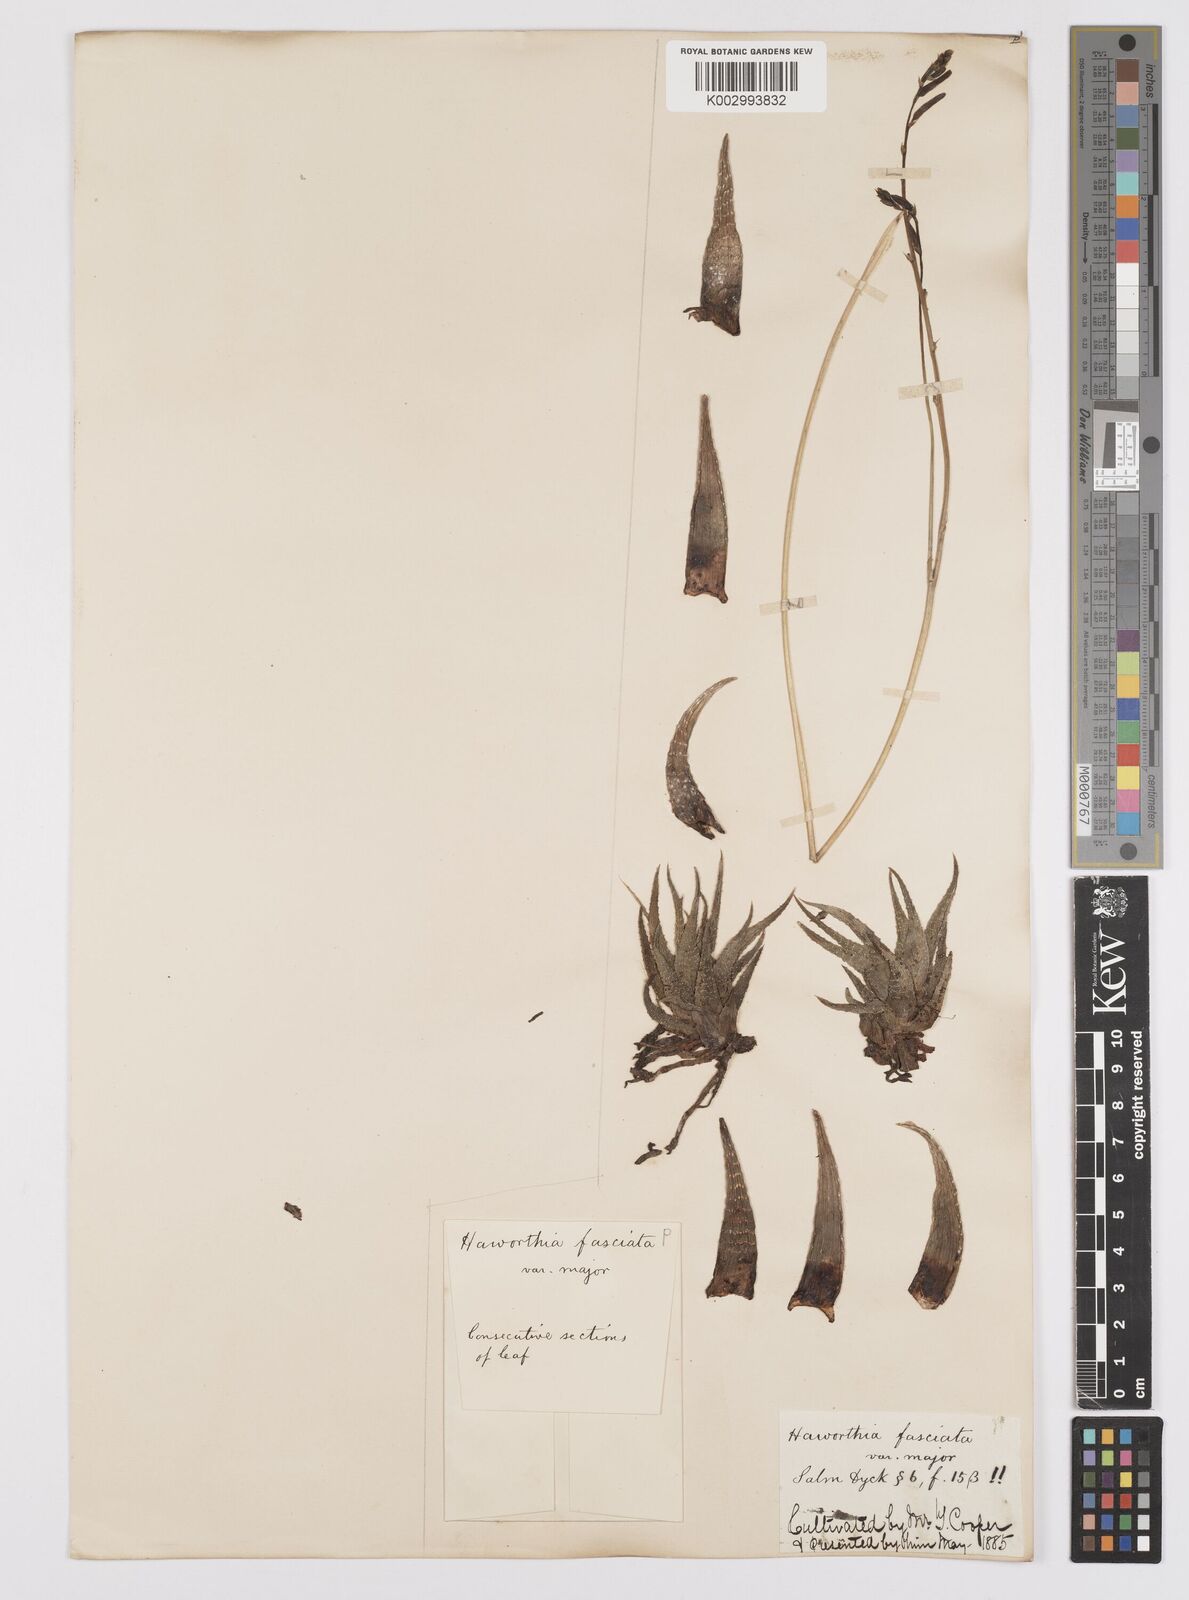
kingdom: Plantae
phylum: Tracheophyta
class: Liliopsida
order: Asparagales
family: Asphodelaceae
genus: Haworthiopsis
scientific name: Haworthiopsis fasciata
